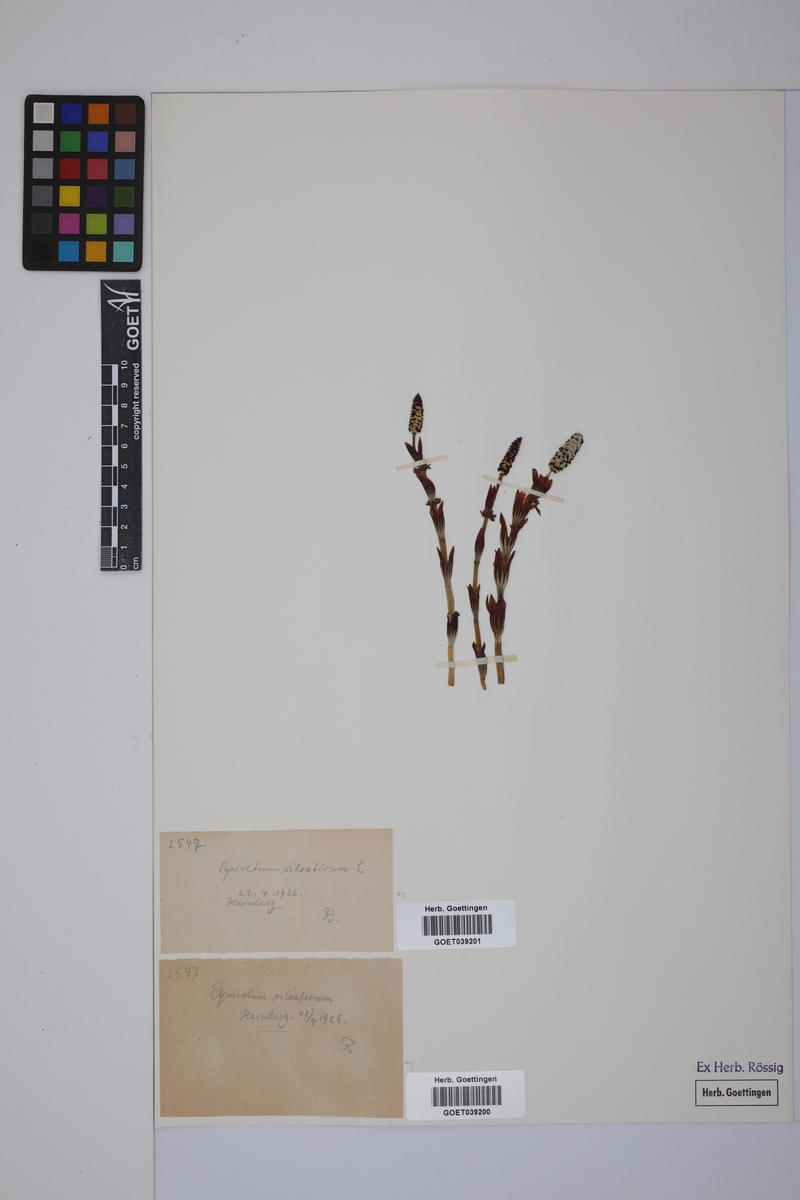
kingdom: Plantae
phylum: Tracheophyta
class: Polypodiopsida
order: Equisetales
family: Equisetaceae
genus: Equisetum
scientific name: Equisetum sylvaticum
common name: Wood horsetail
